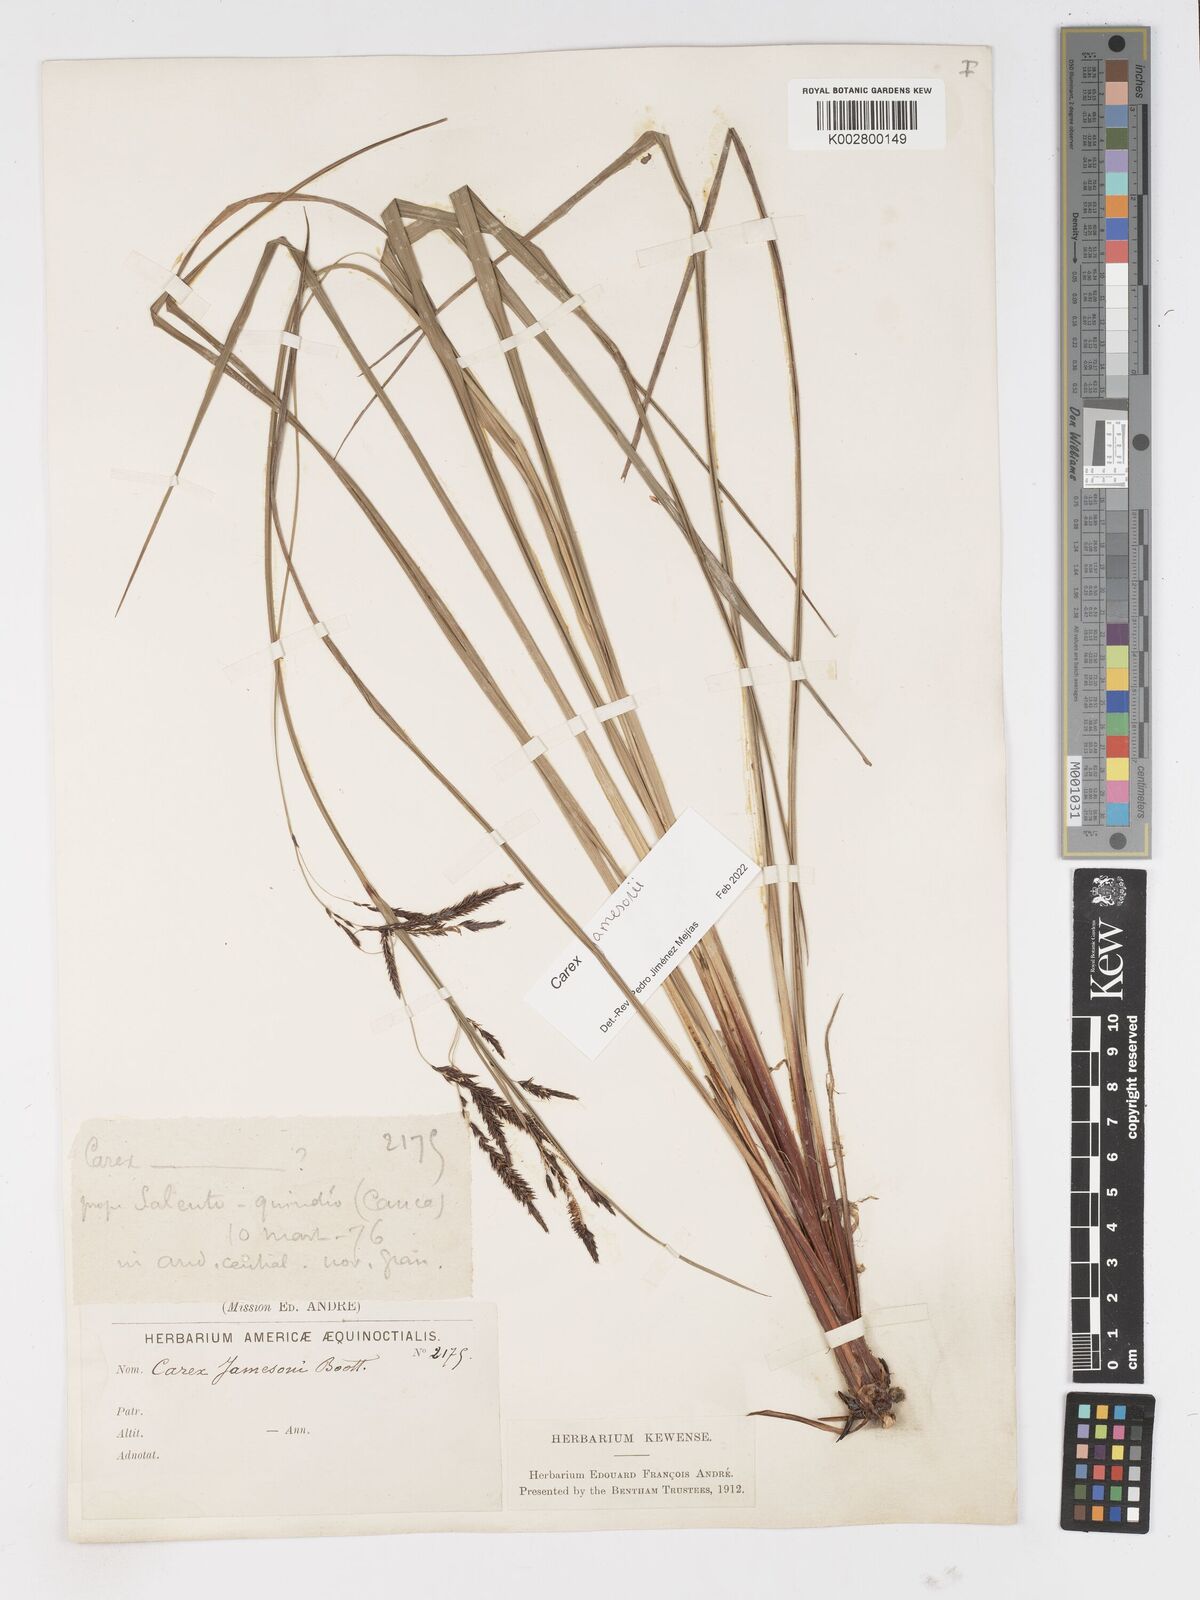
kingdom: Plantae
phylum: Tracheophyta
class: Liliopsida
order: Poales
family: Cyperaceae
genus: Carex
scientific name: Carex jamesonii
